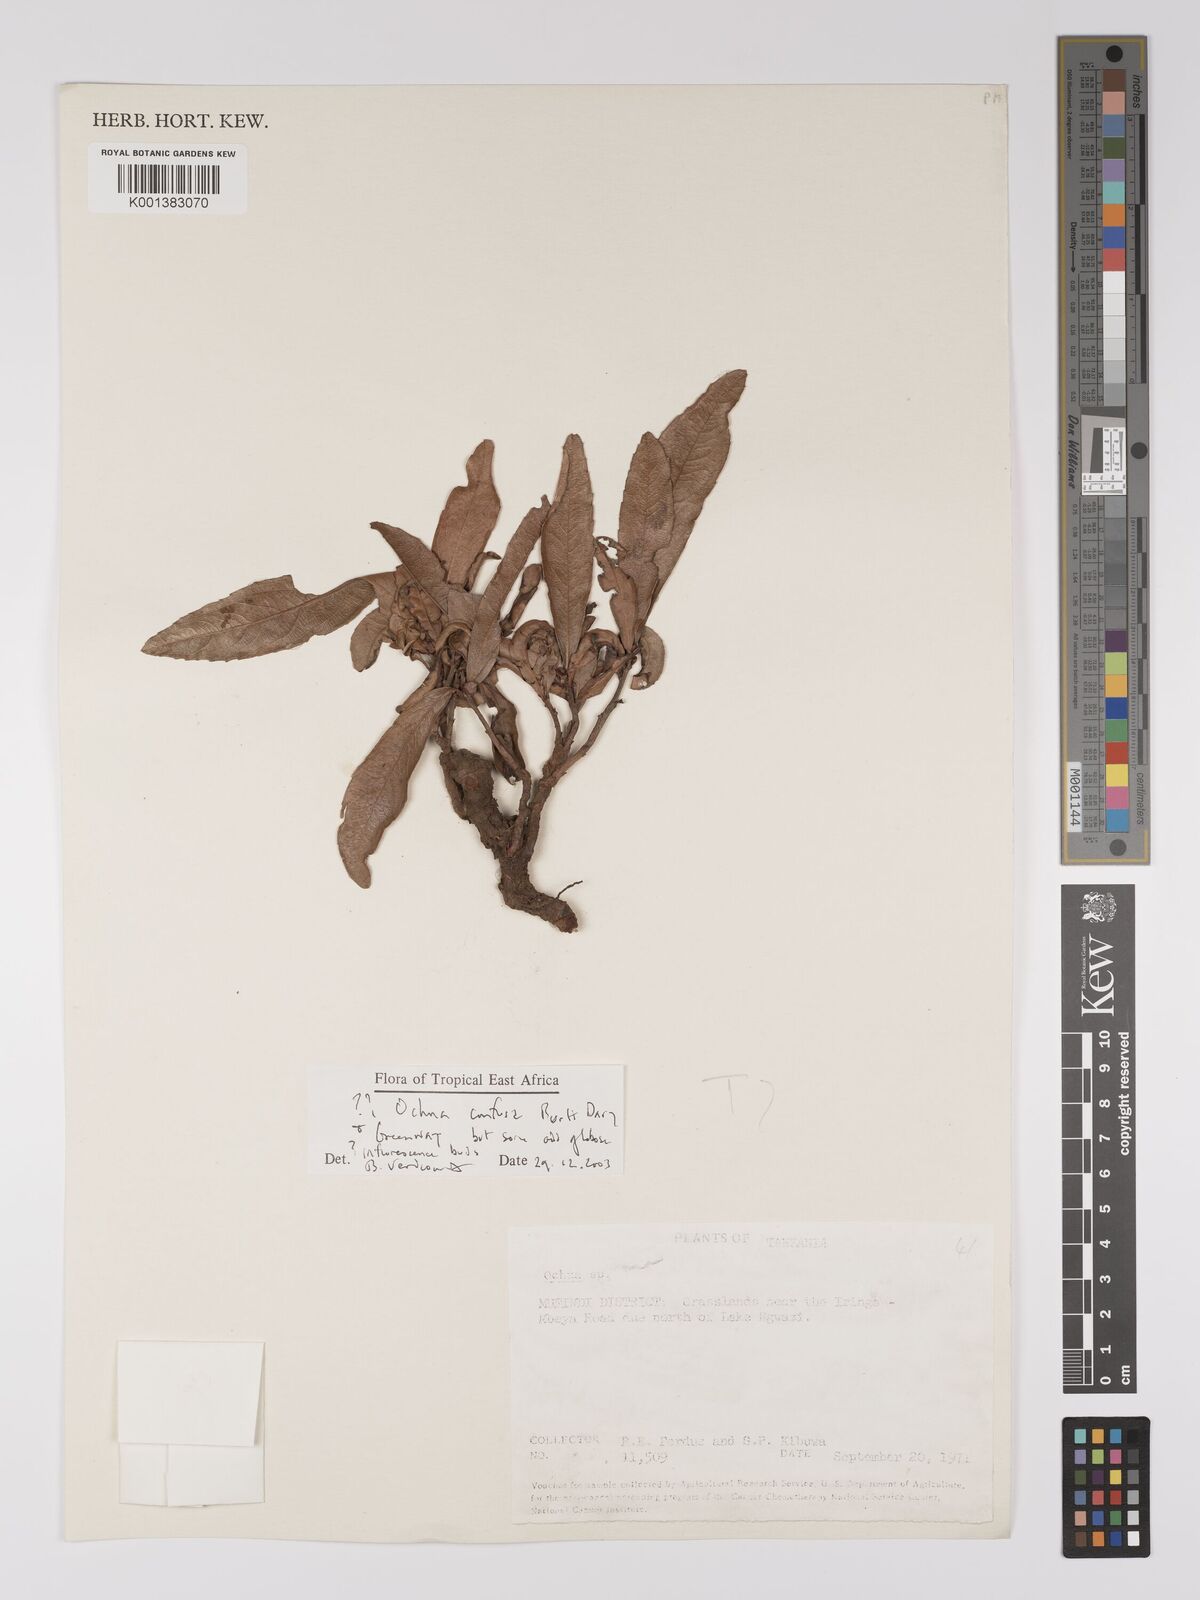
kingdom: Plantae
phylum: Tracheophyta
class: Magnoliopsida
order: Malpighiales
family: Ochnaceae
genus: Ochna
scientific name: Ochna confusa
